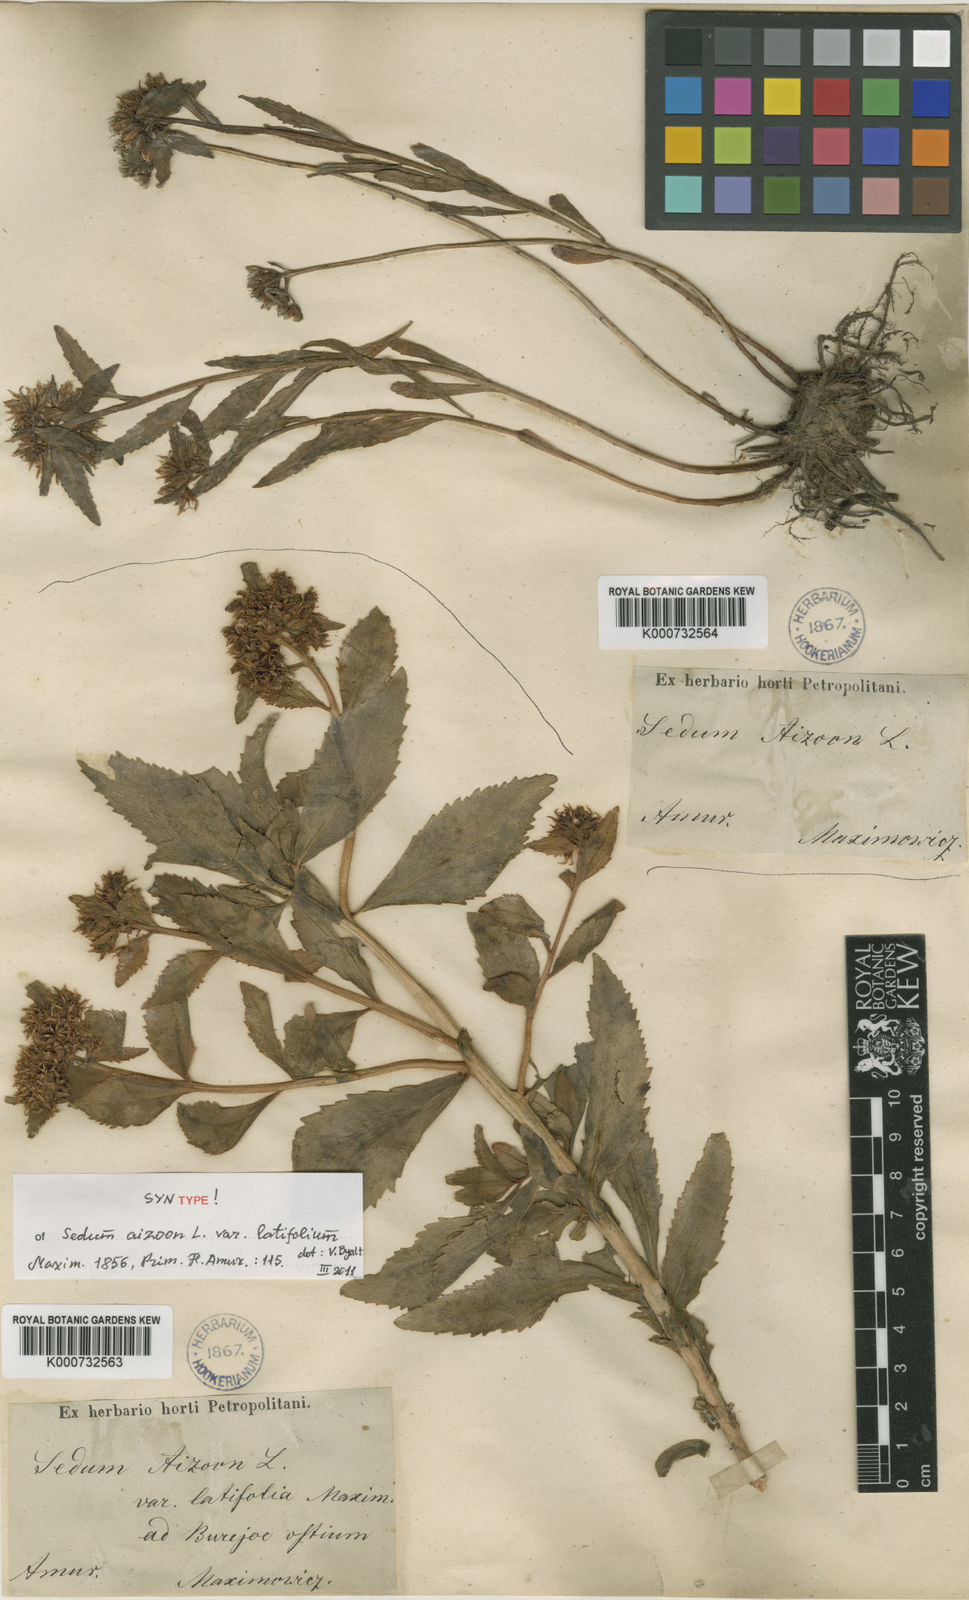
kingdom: Plantae
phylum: Tracheophyta
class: Magnoliopsida
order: Saxifragales
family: Crassulaceae
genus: Phedimus
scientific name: Phedimus aizoon
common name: Orpin aizoon
